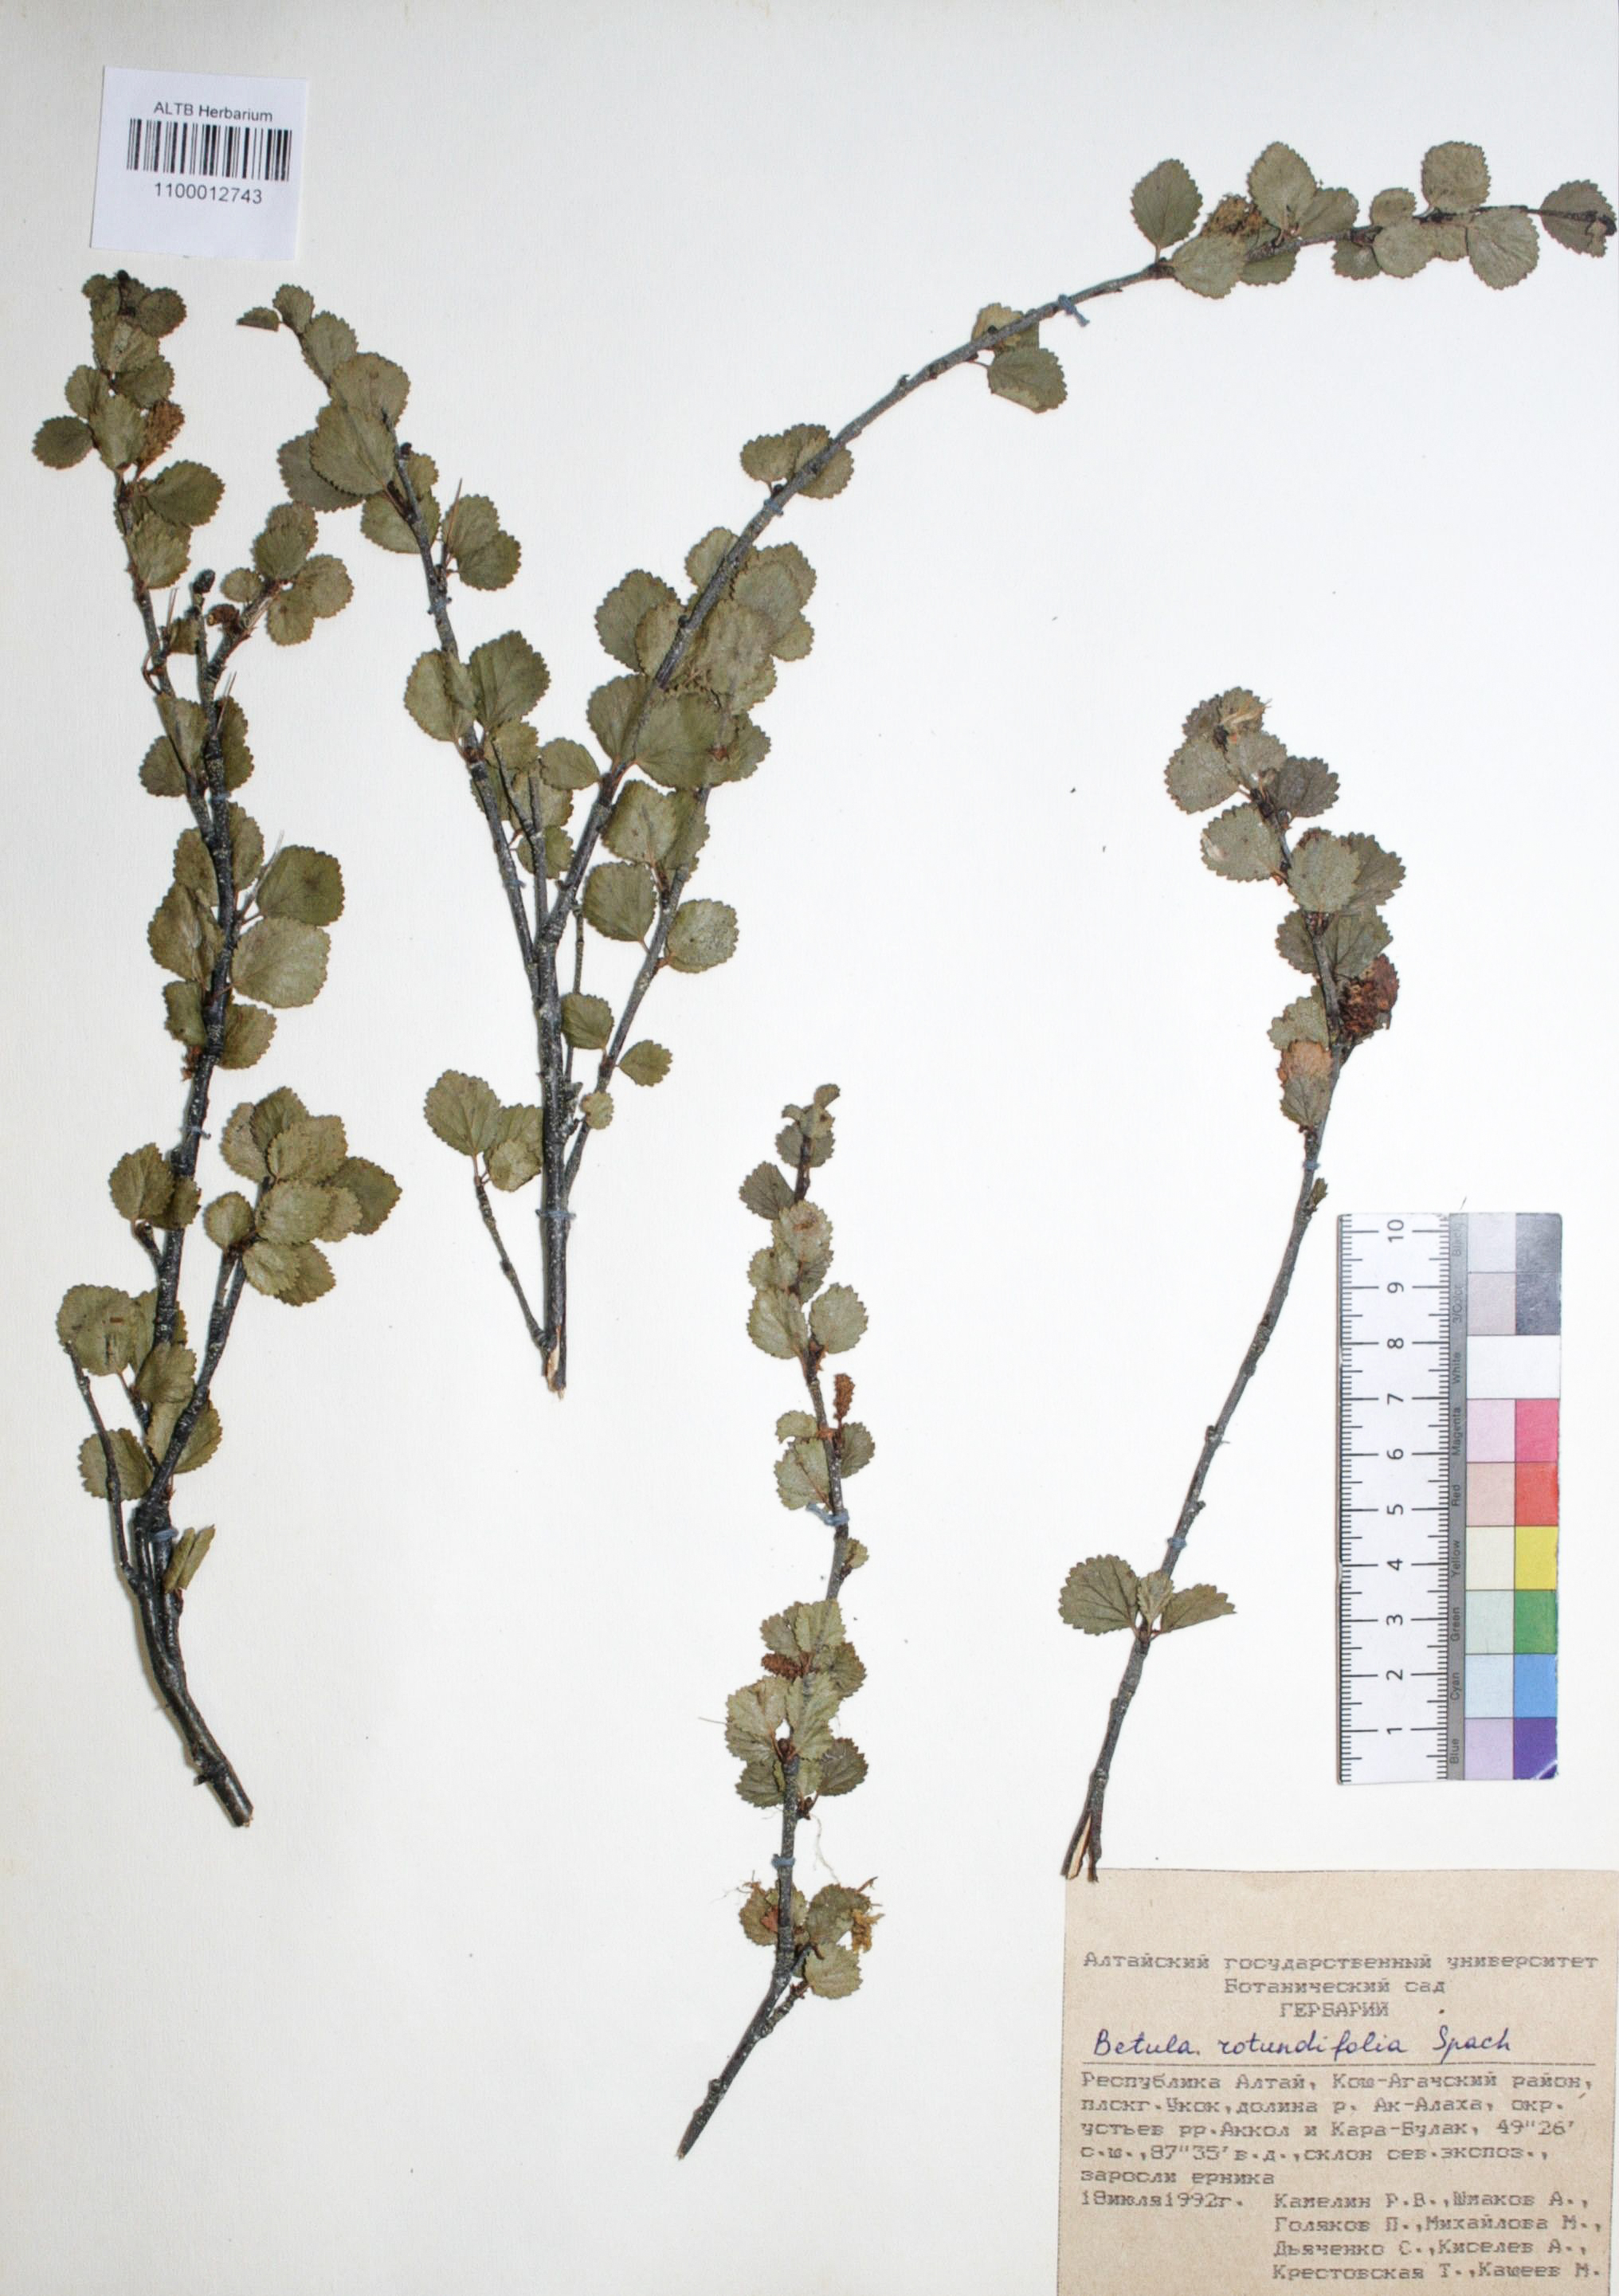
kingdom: Plantae
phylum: Tracheophyta
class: Magnoliopsida
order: Fagales
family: Betulaceae
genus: Betula
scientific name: Betula glandulosa
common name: Dwarf birch
